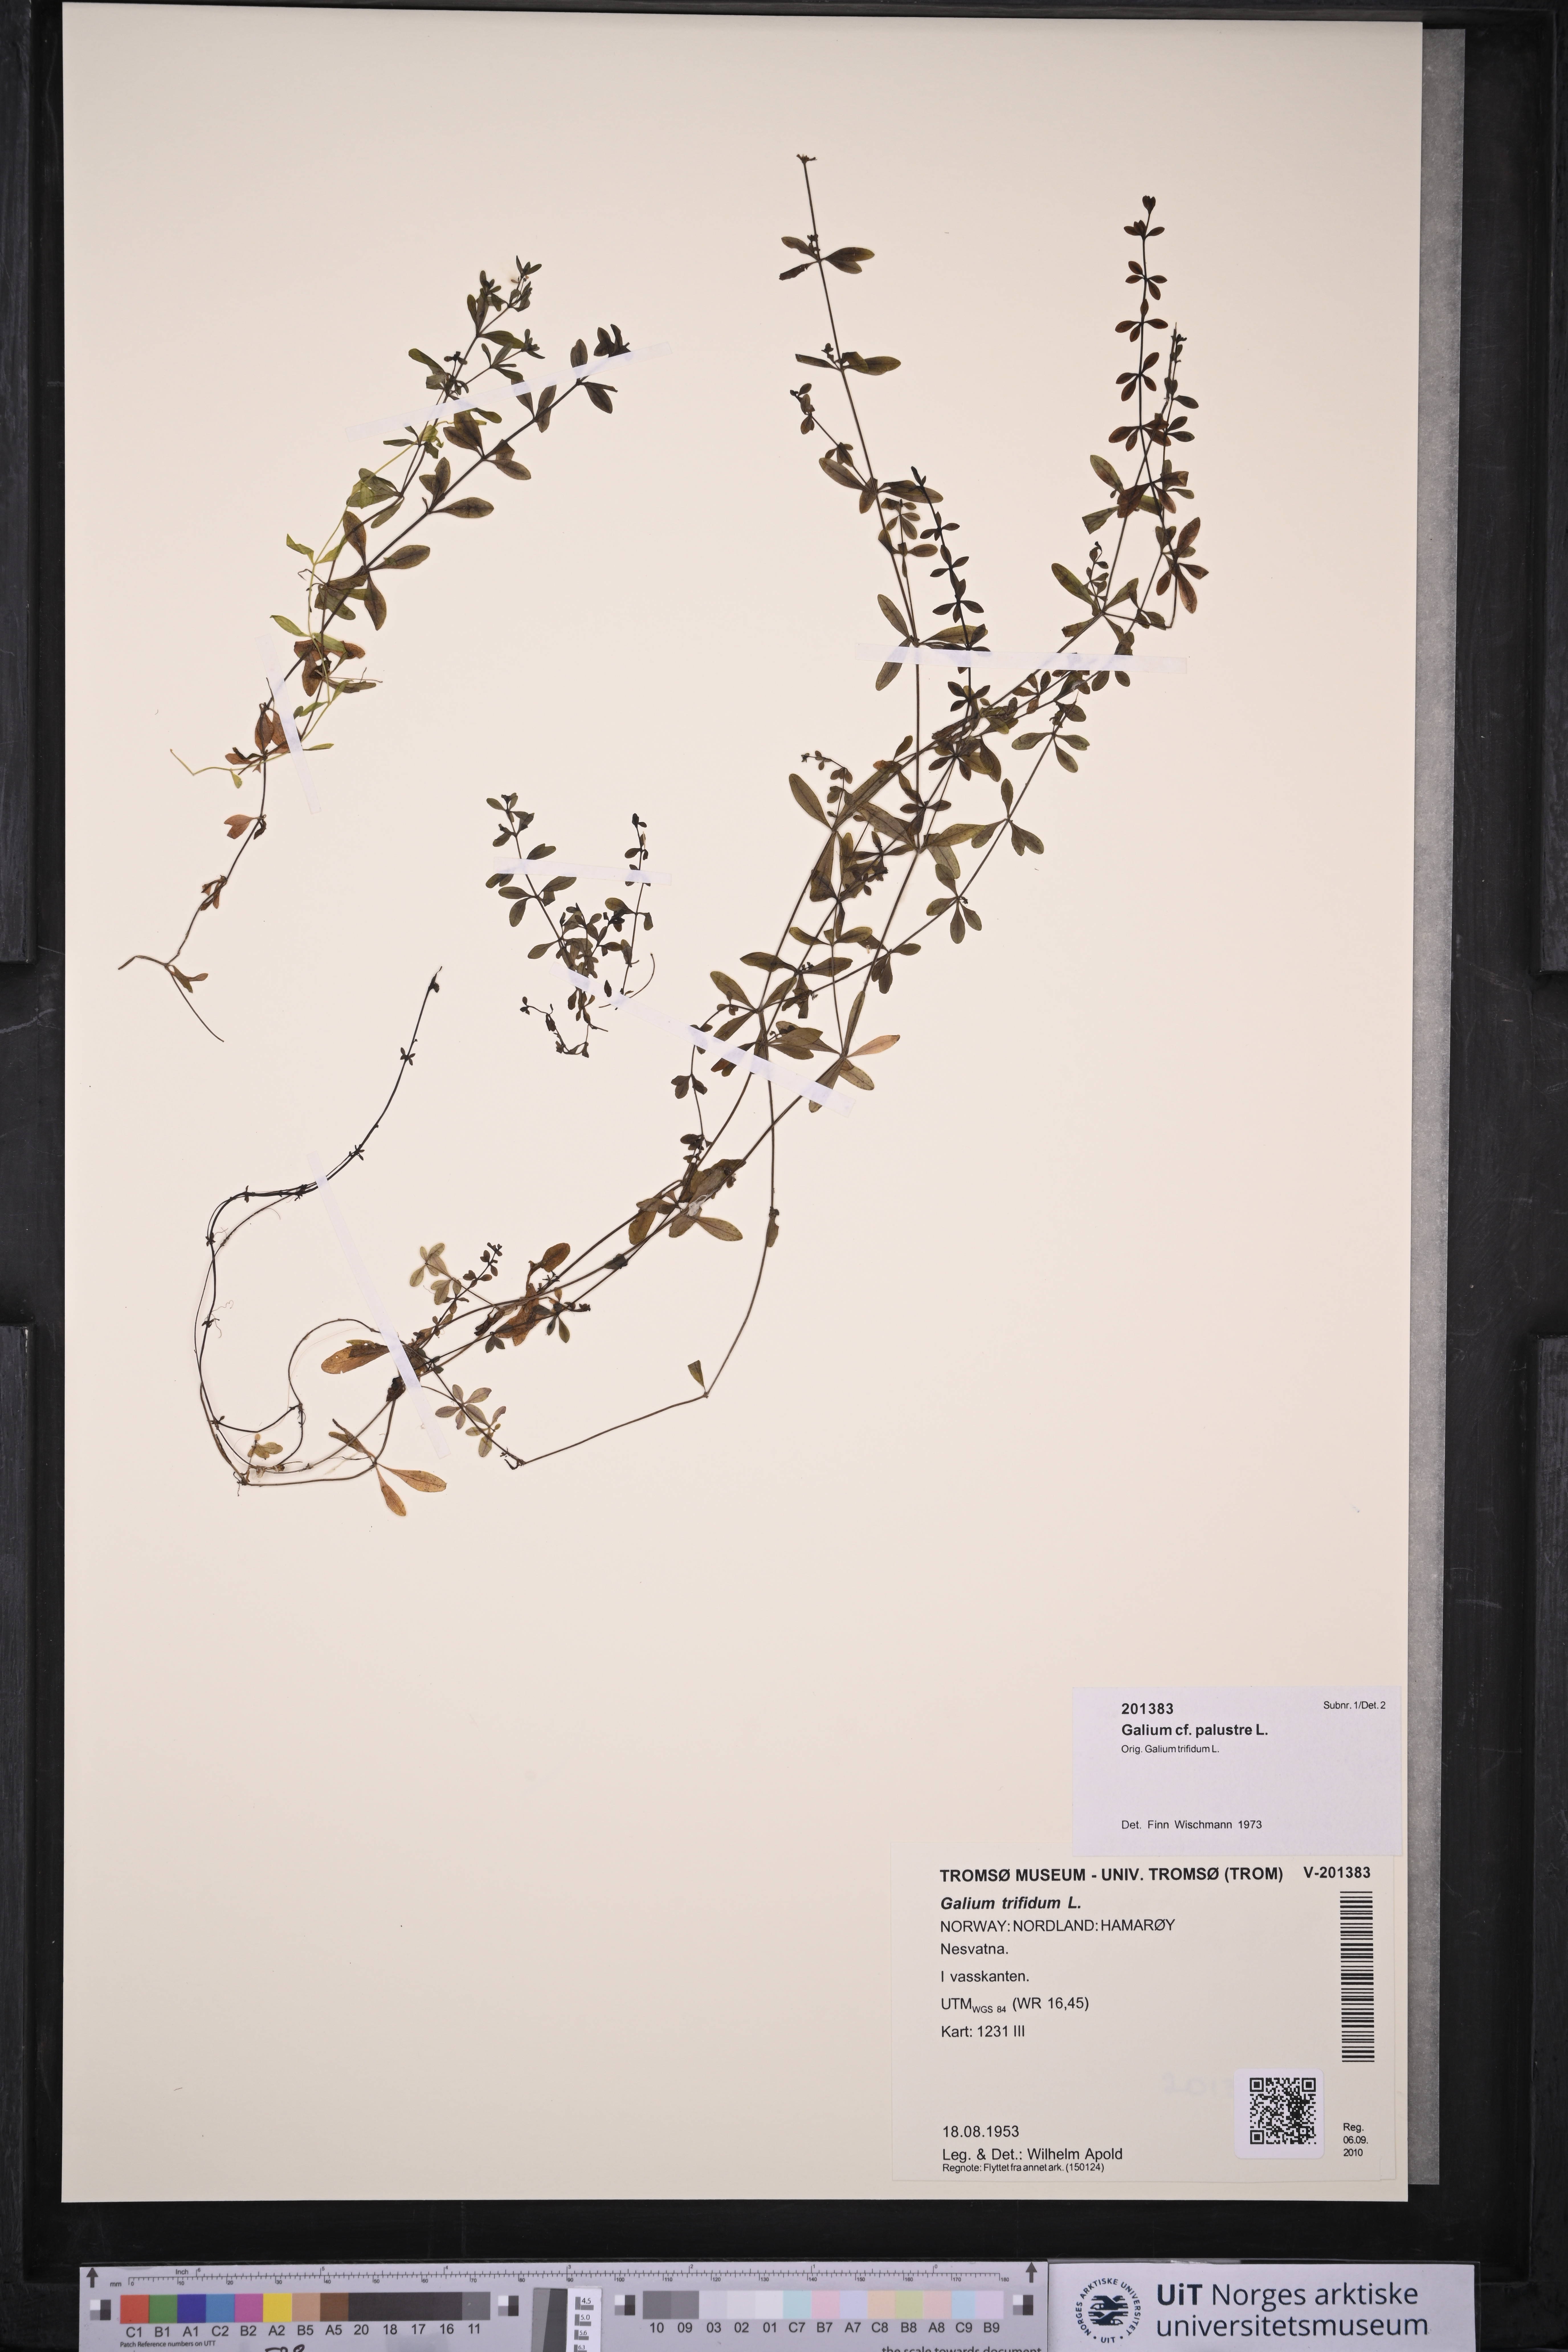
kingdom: Plantae
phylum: Tracheophyta
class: Magnoliopsida
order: Gentianales
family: Rubiaceae
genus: Galium
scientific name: Galium palustre
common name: Common marsh-bedstraw
